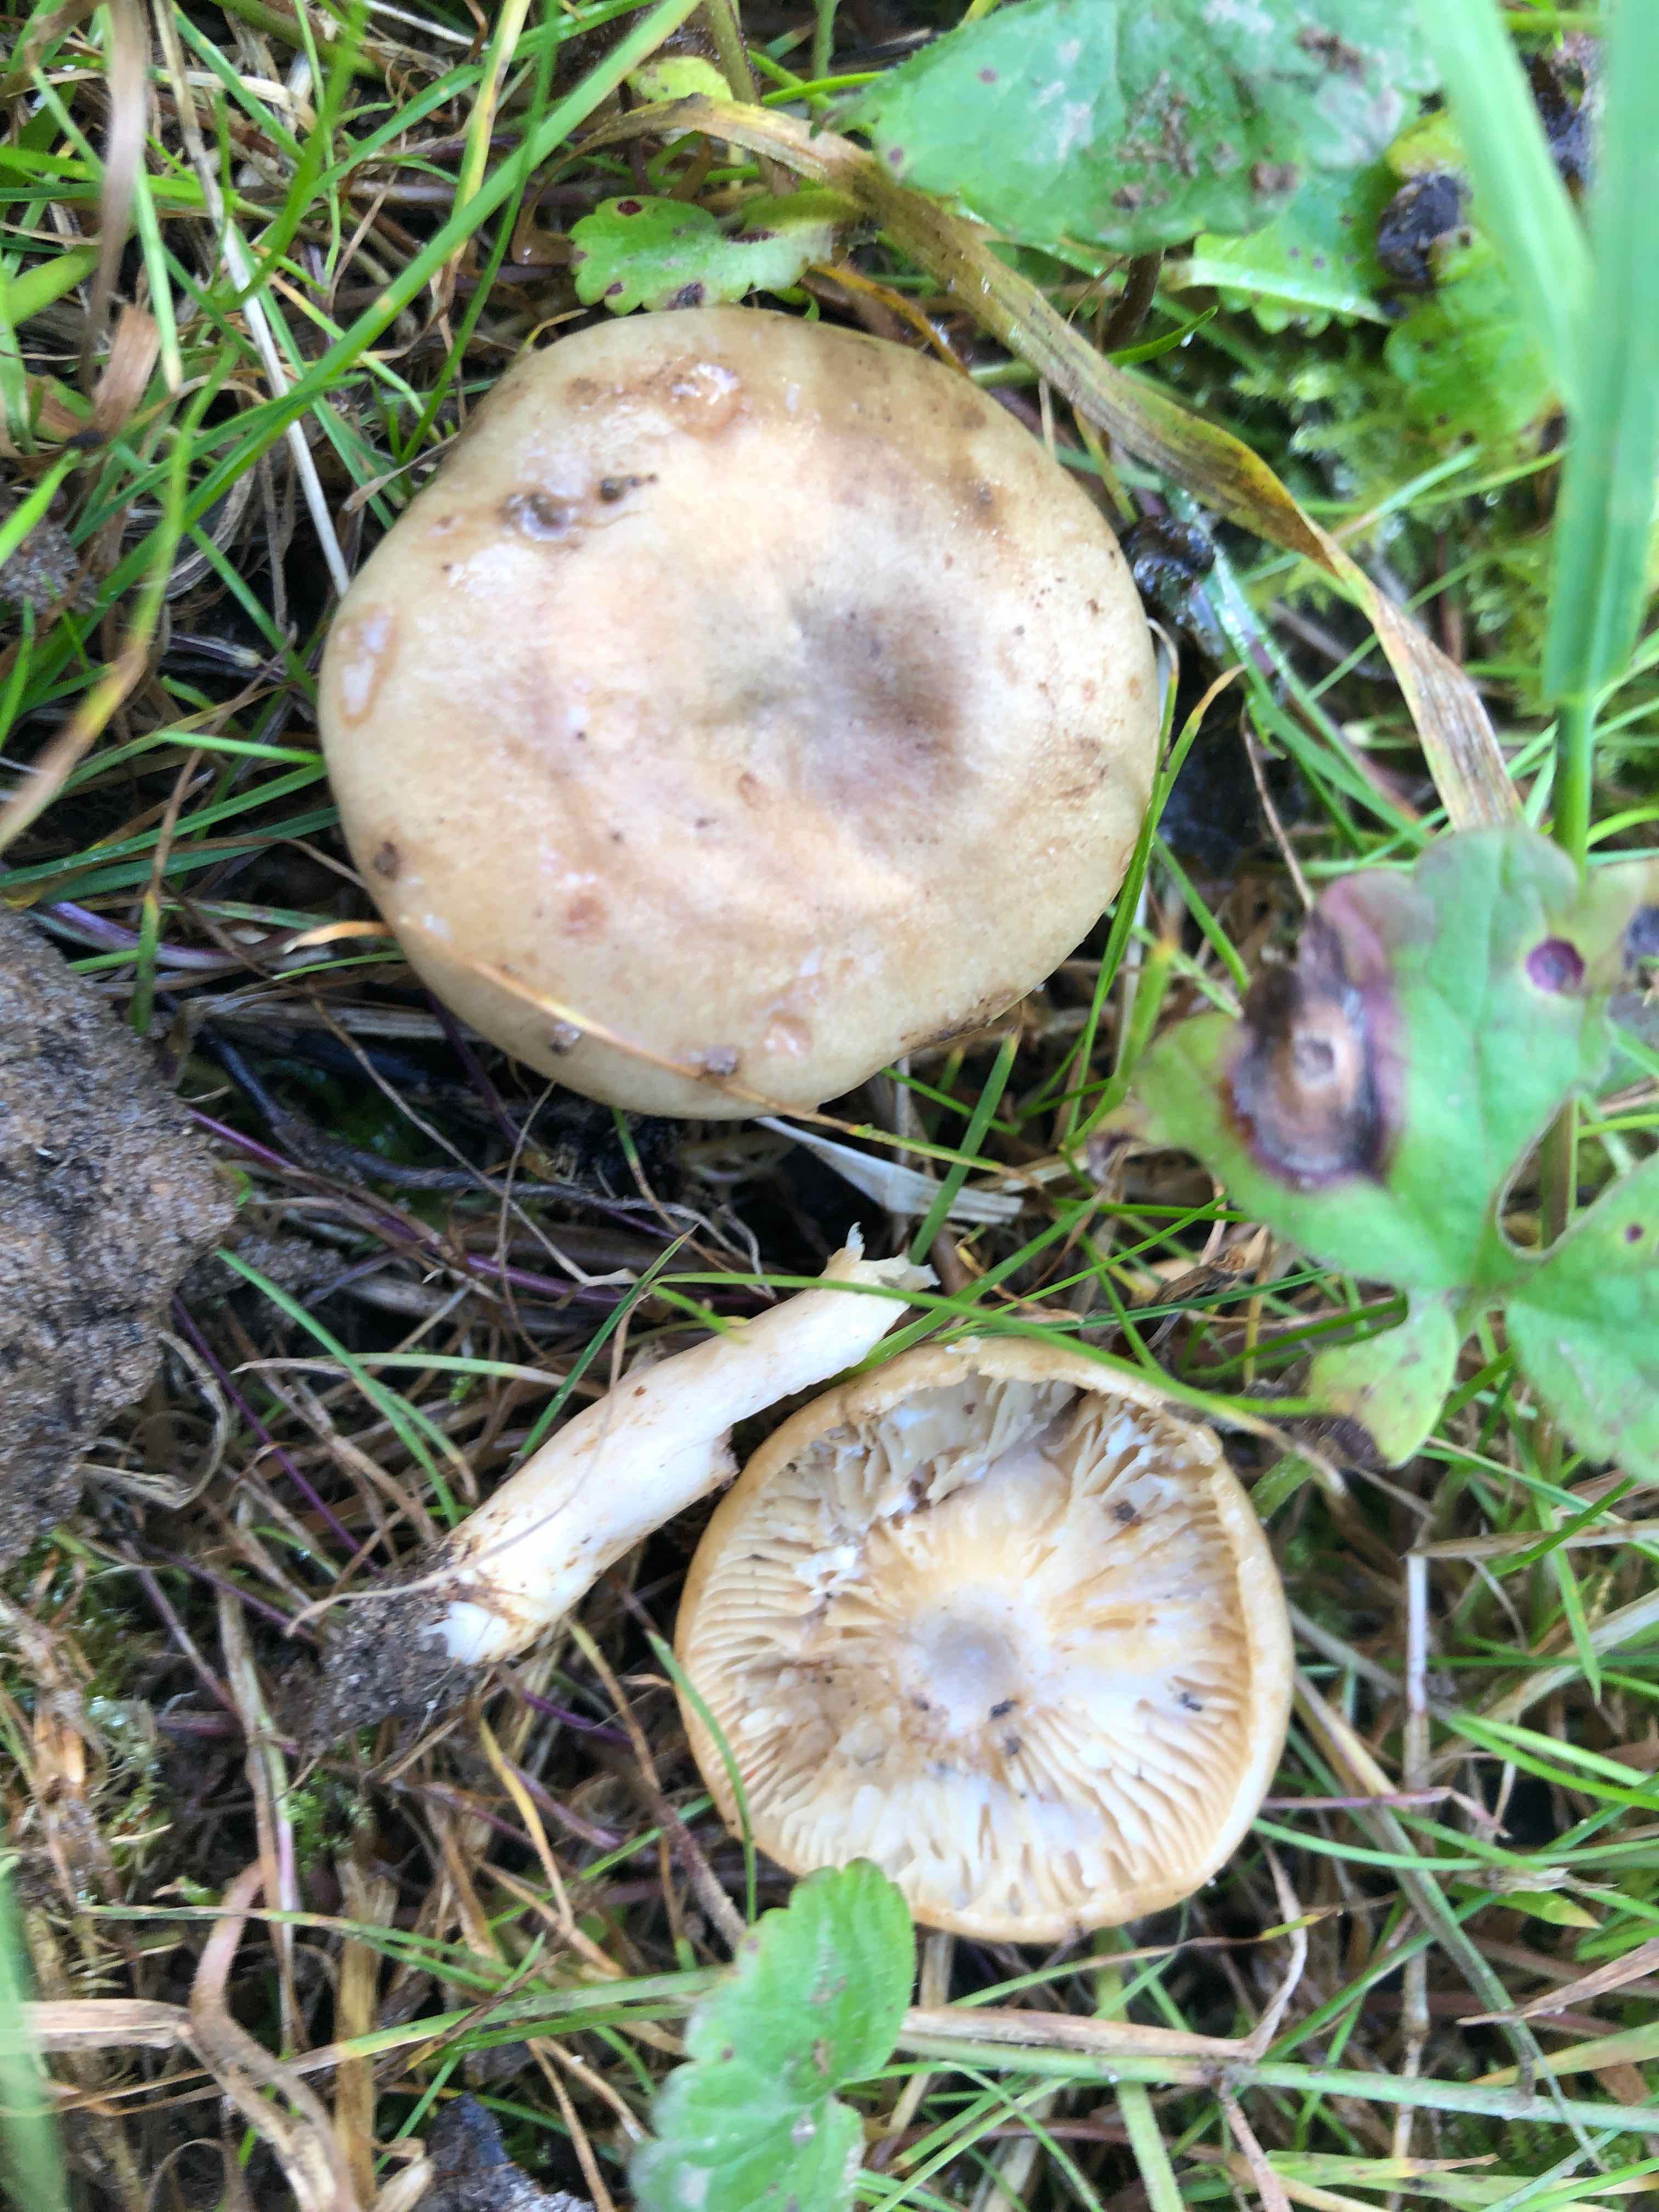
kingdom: Fungi
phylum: Basidiomycota
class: Agaricomycetes
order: Russulales
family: Russulaceae
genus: Lactarius
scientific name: Lactarius pyrogalus
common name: hassel-mælkehat
